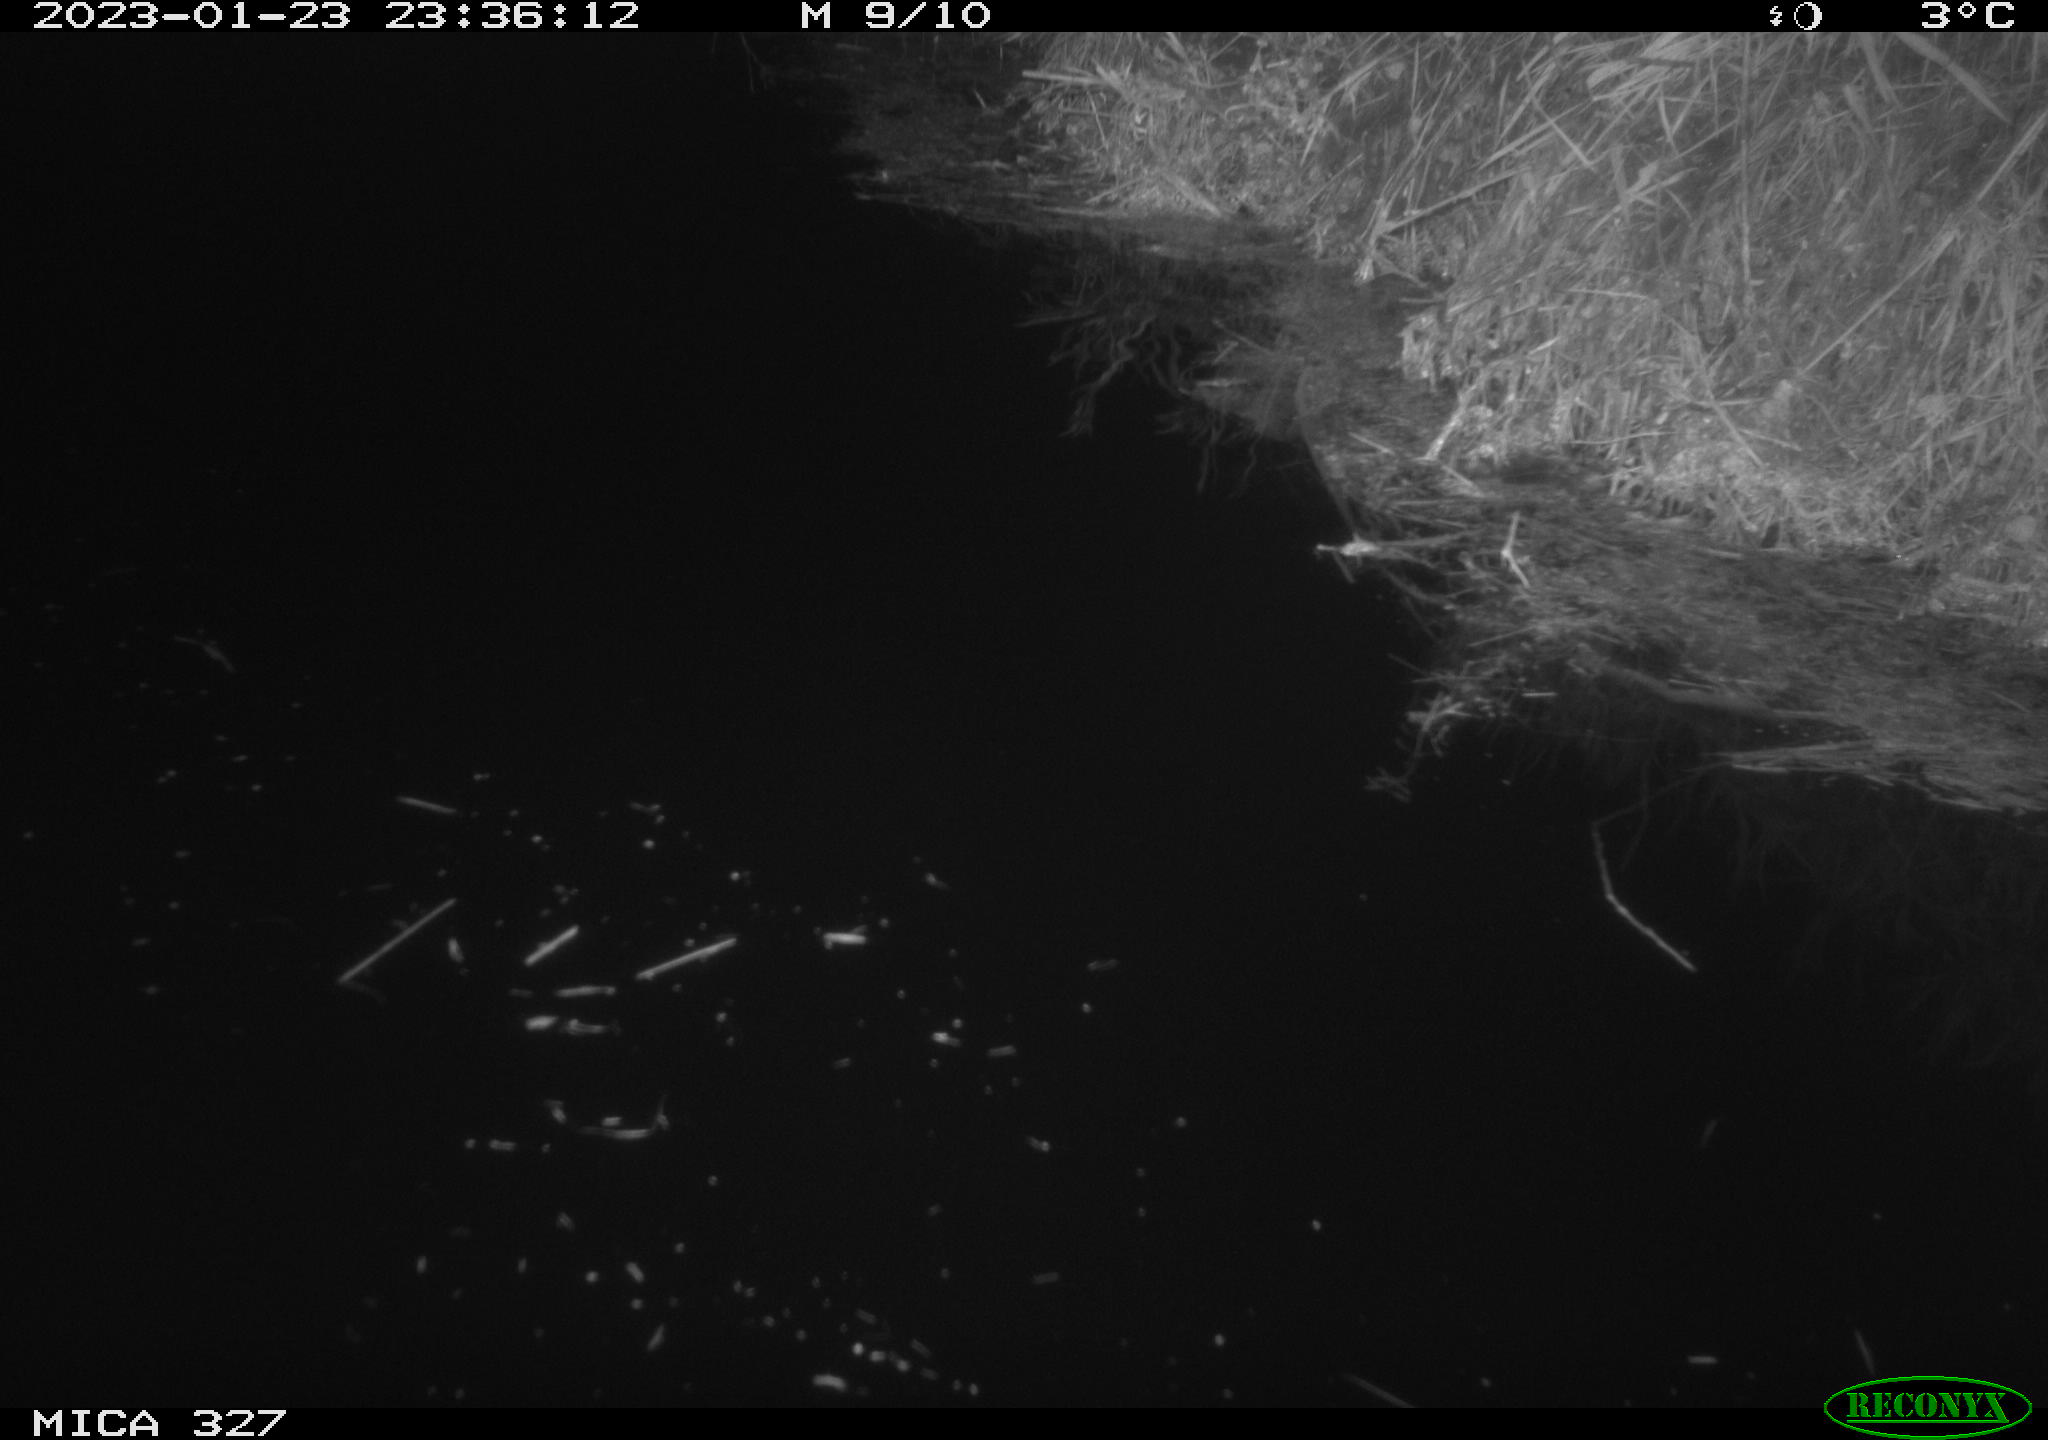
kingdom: Animalia
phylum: Chordata
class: Mammalia
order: Rodentia
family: Cricetidae
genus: Ondatra
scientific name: Ondatra zibethicus
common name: Muskrat
